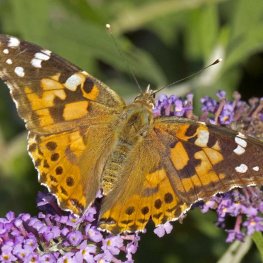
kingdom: Animalia
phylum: Arthropoda
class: Insecta
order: Lepidoptera
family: Nymphalidae
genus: Vanessa
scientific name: Vanessa cardui
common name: Painted Lady
